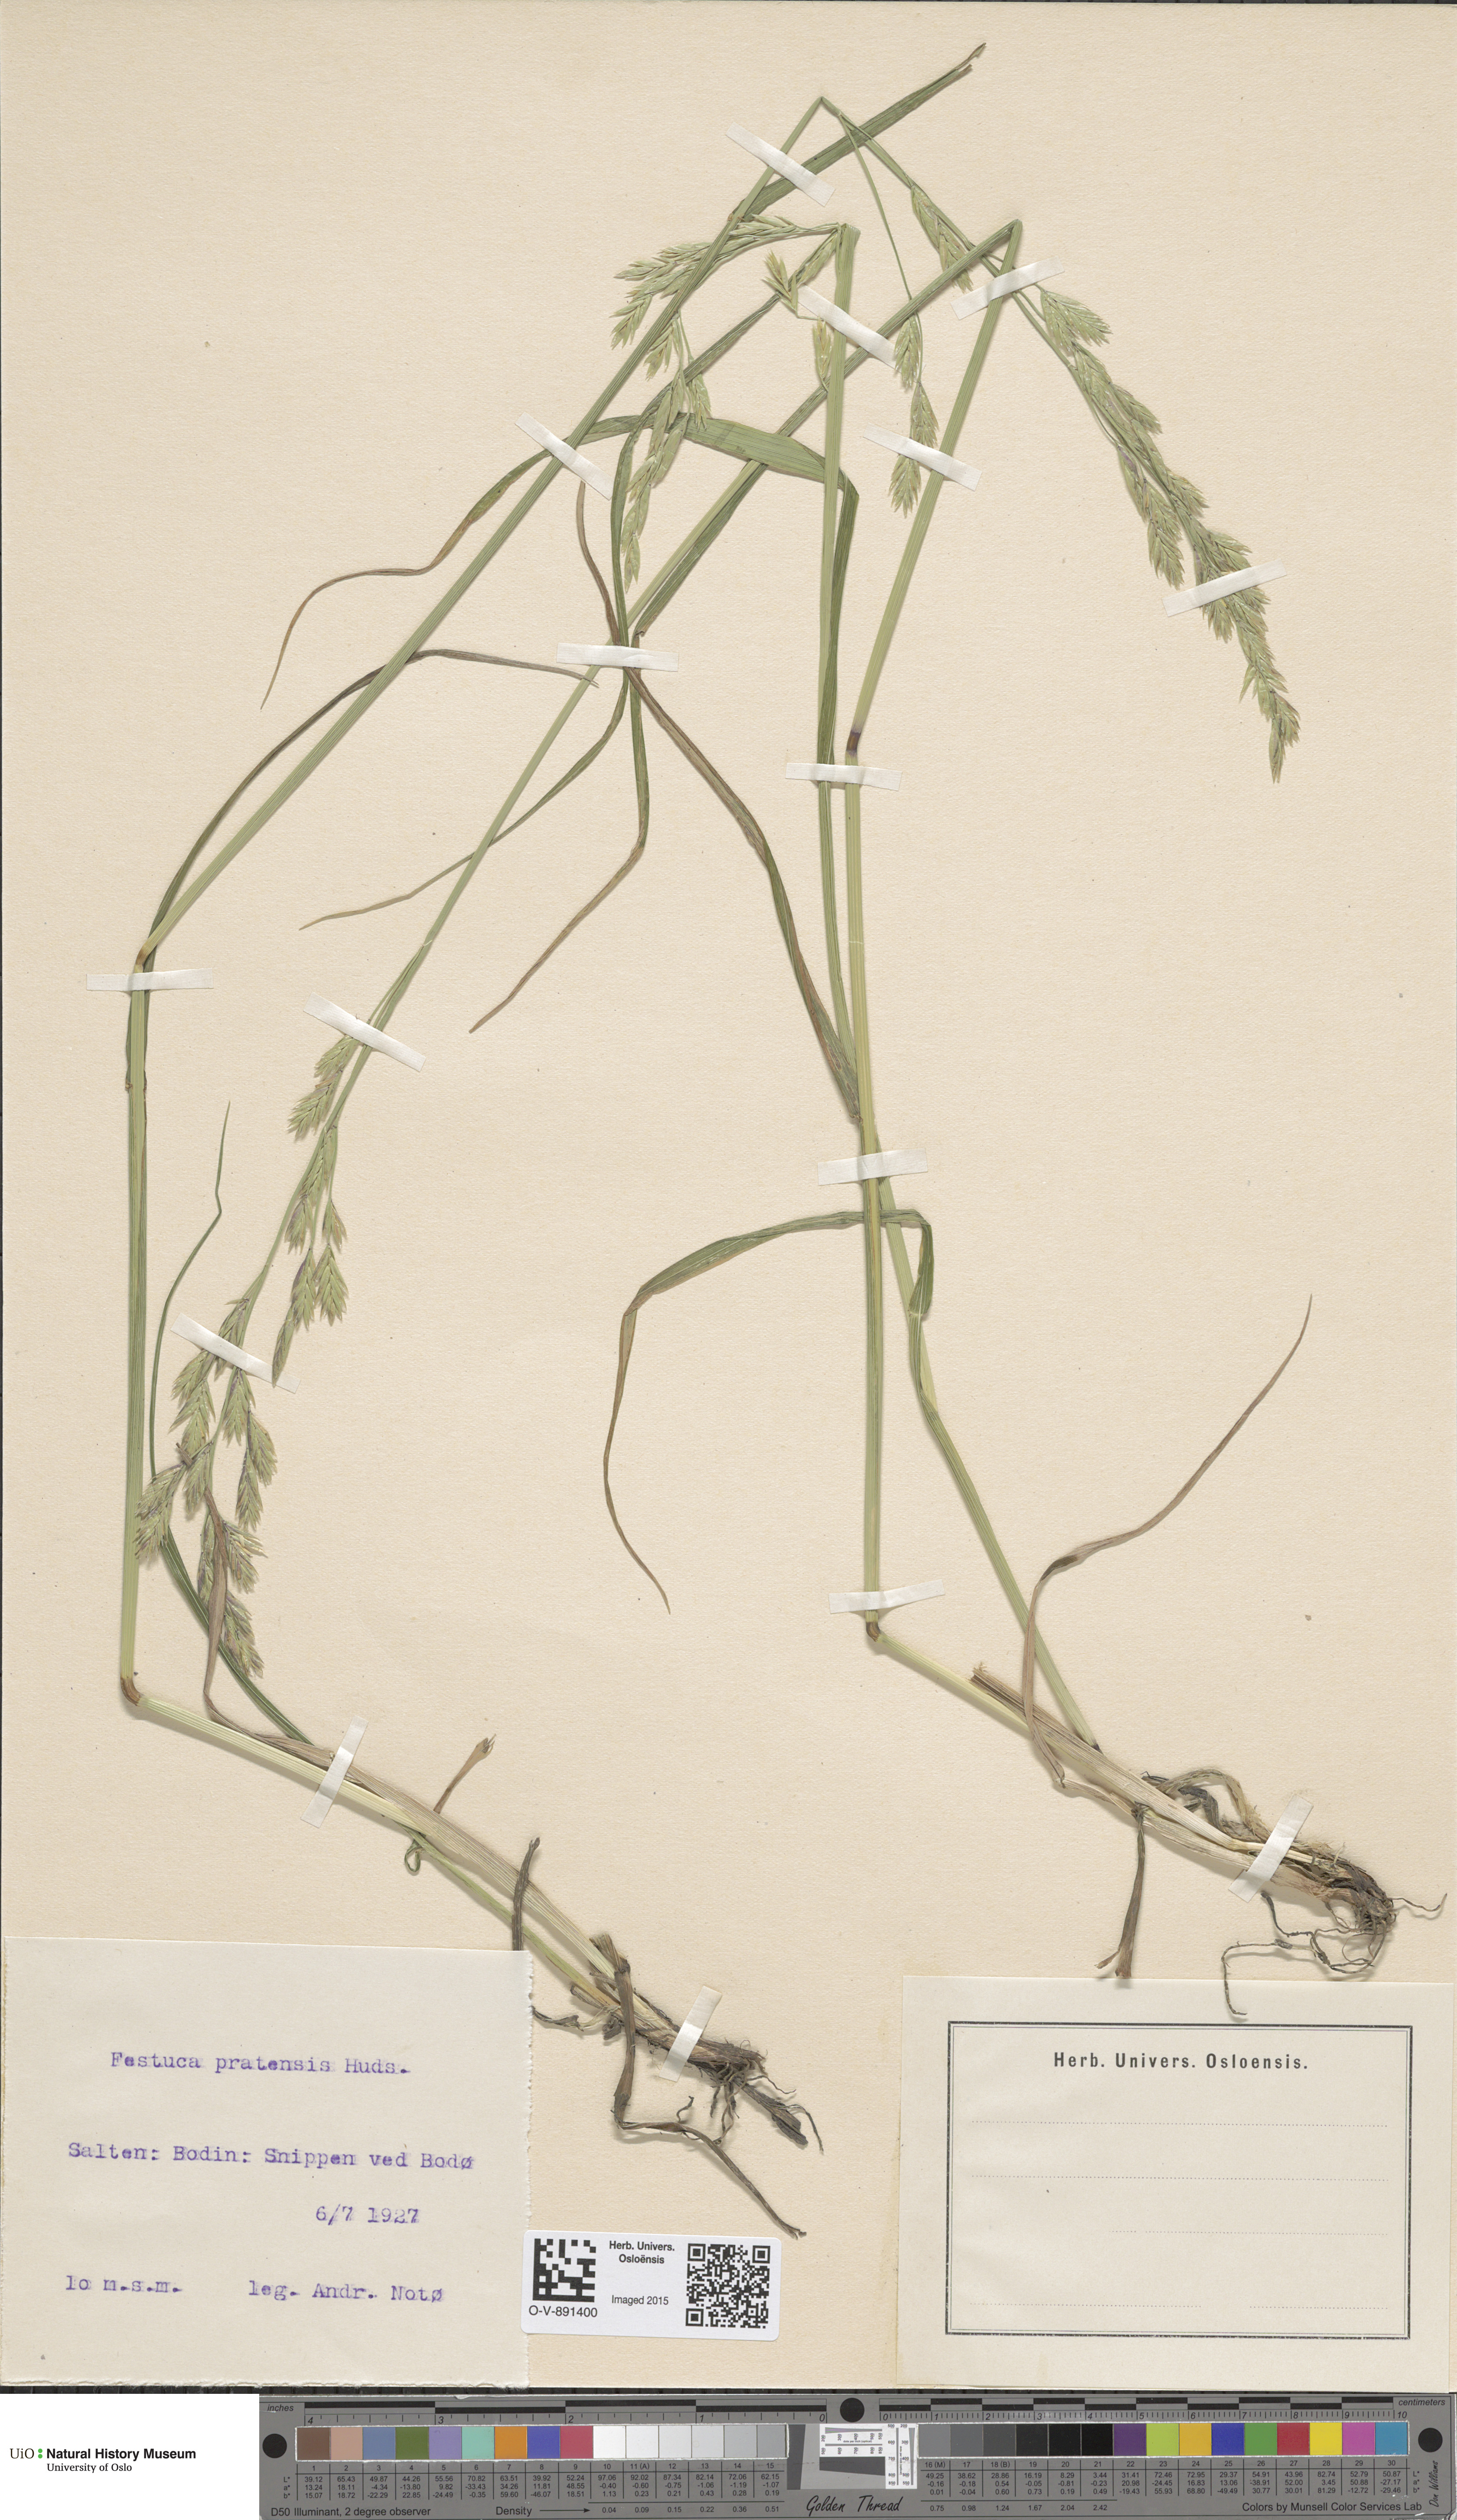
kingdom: Plantae
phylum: Tracheophyta
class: Liliopsida
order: Poales
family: Poaceae
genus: Lolium
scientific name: Lolium pratense
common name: Dover grass
